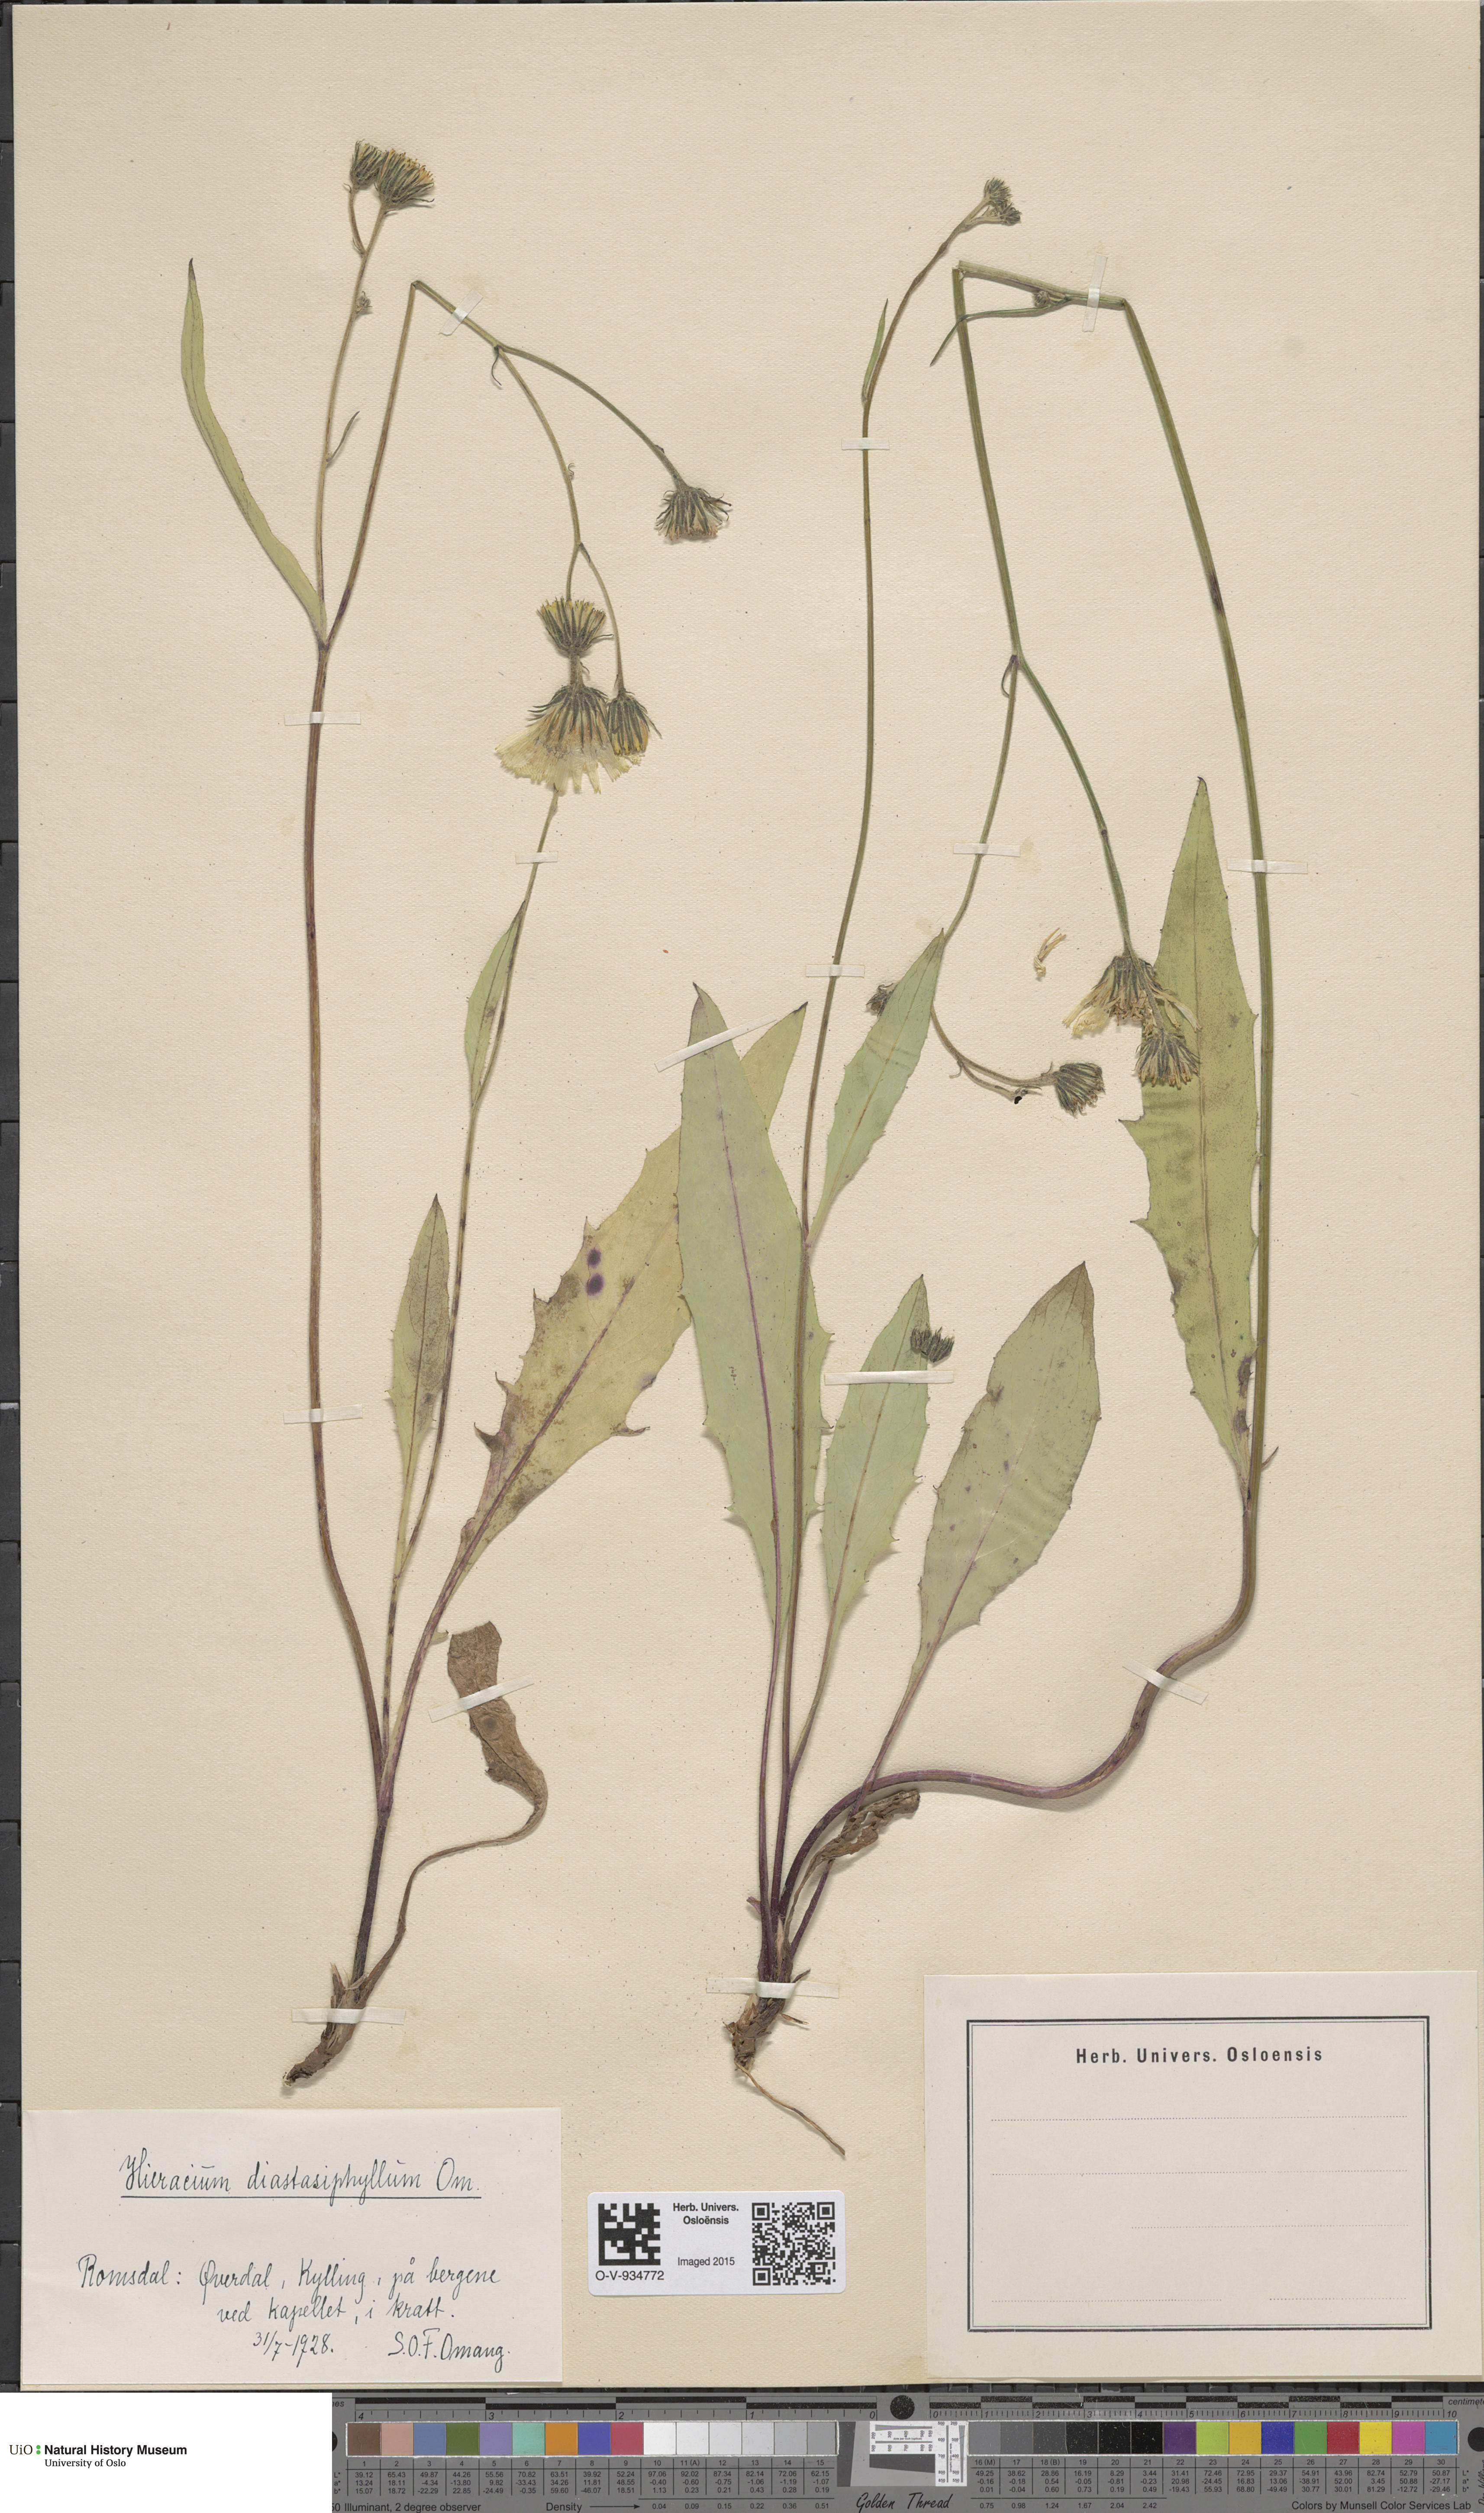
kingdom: Plantae
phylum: Tracheophyta
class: Magnoliopsida
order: Asterales
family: Asteraceae
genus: Hieracium
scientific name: Hieracium
